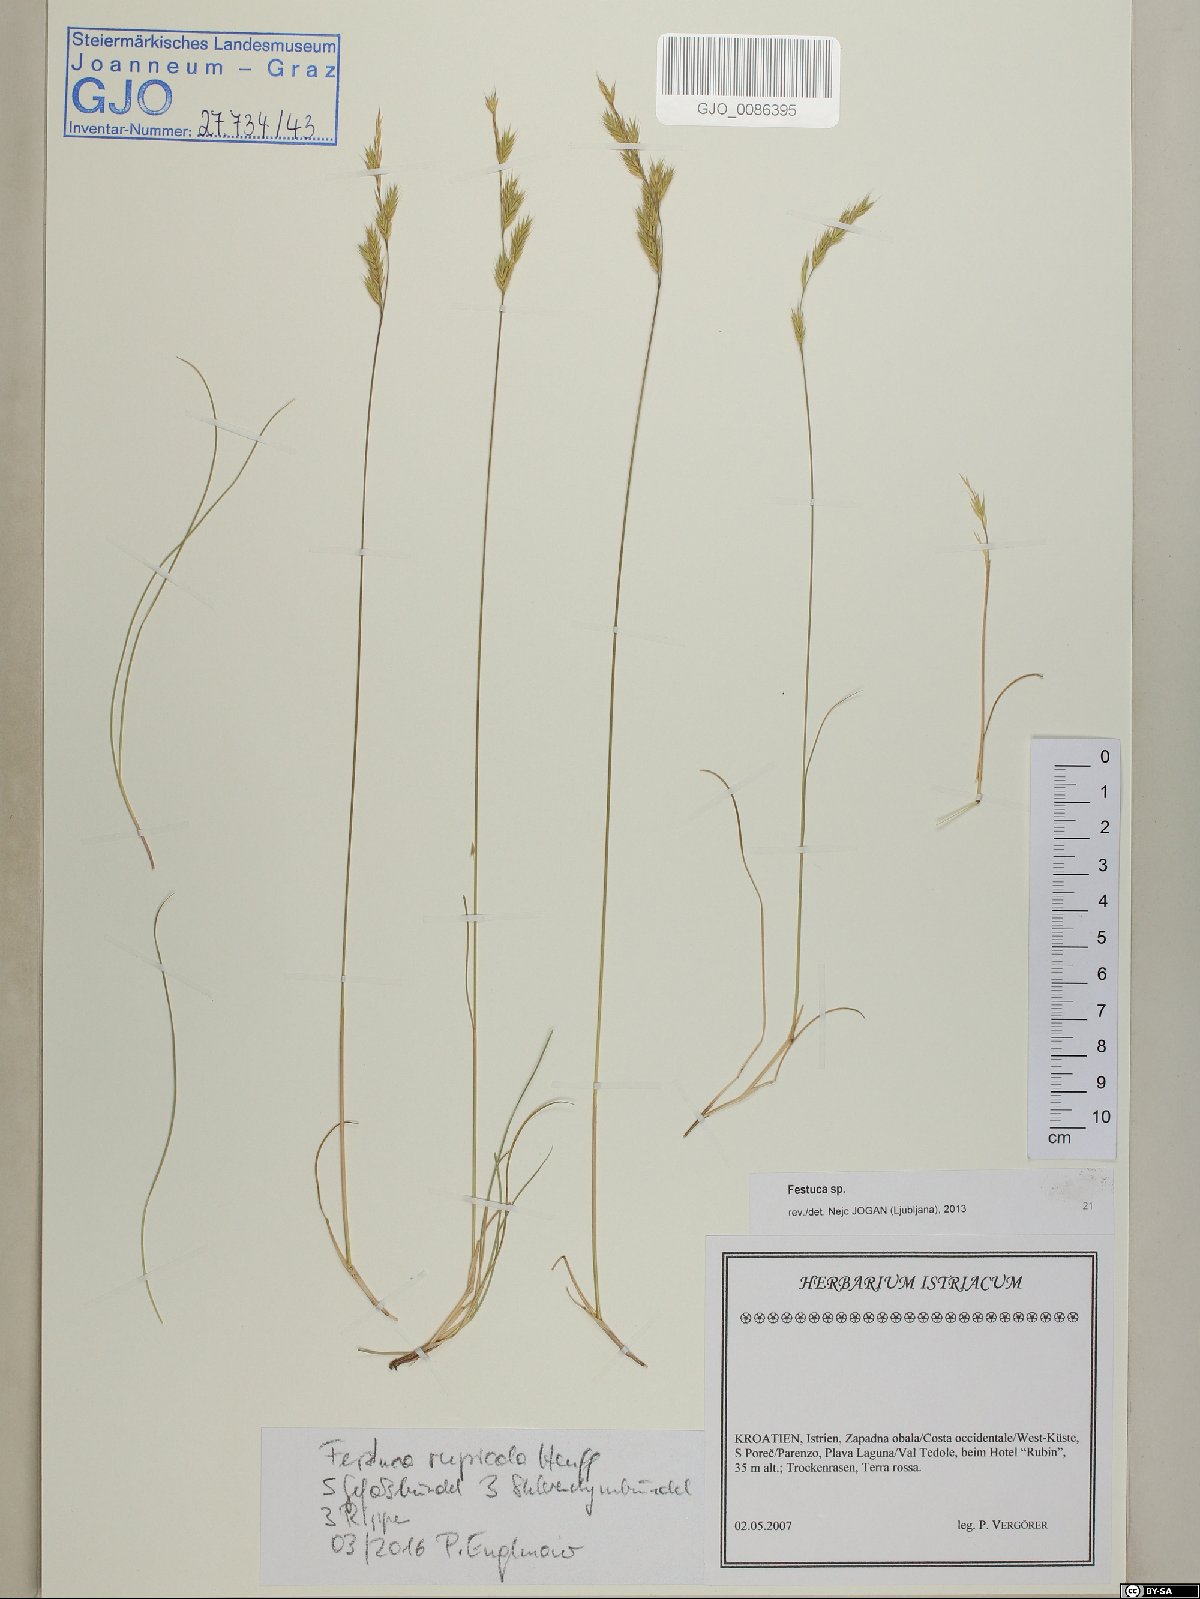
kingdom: Plantae
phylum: Tracheophyta
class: Liliopsida
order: Poales
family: Poaceae
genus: Festuca
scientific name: Festuca rupicola
